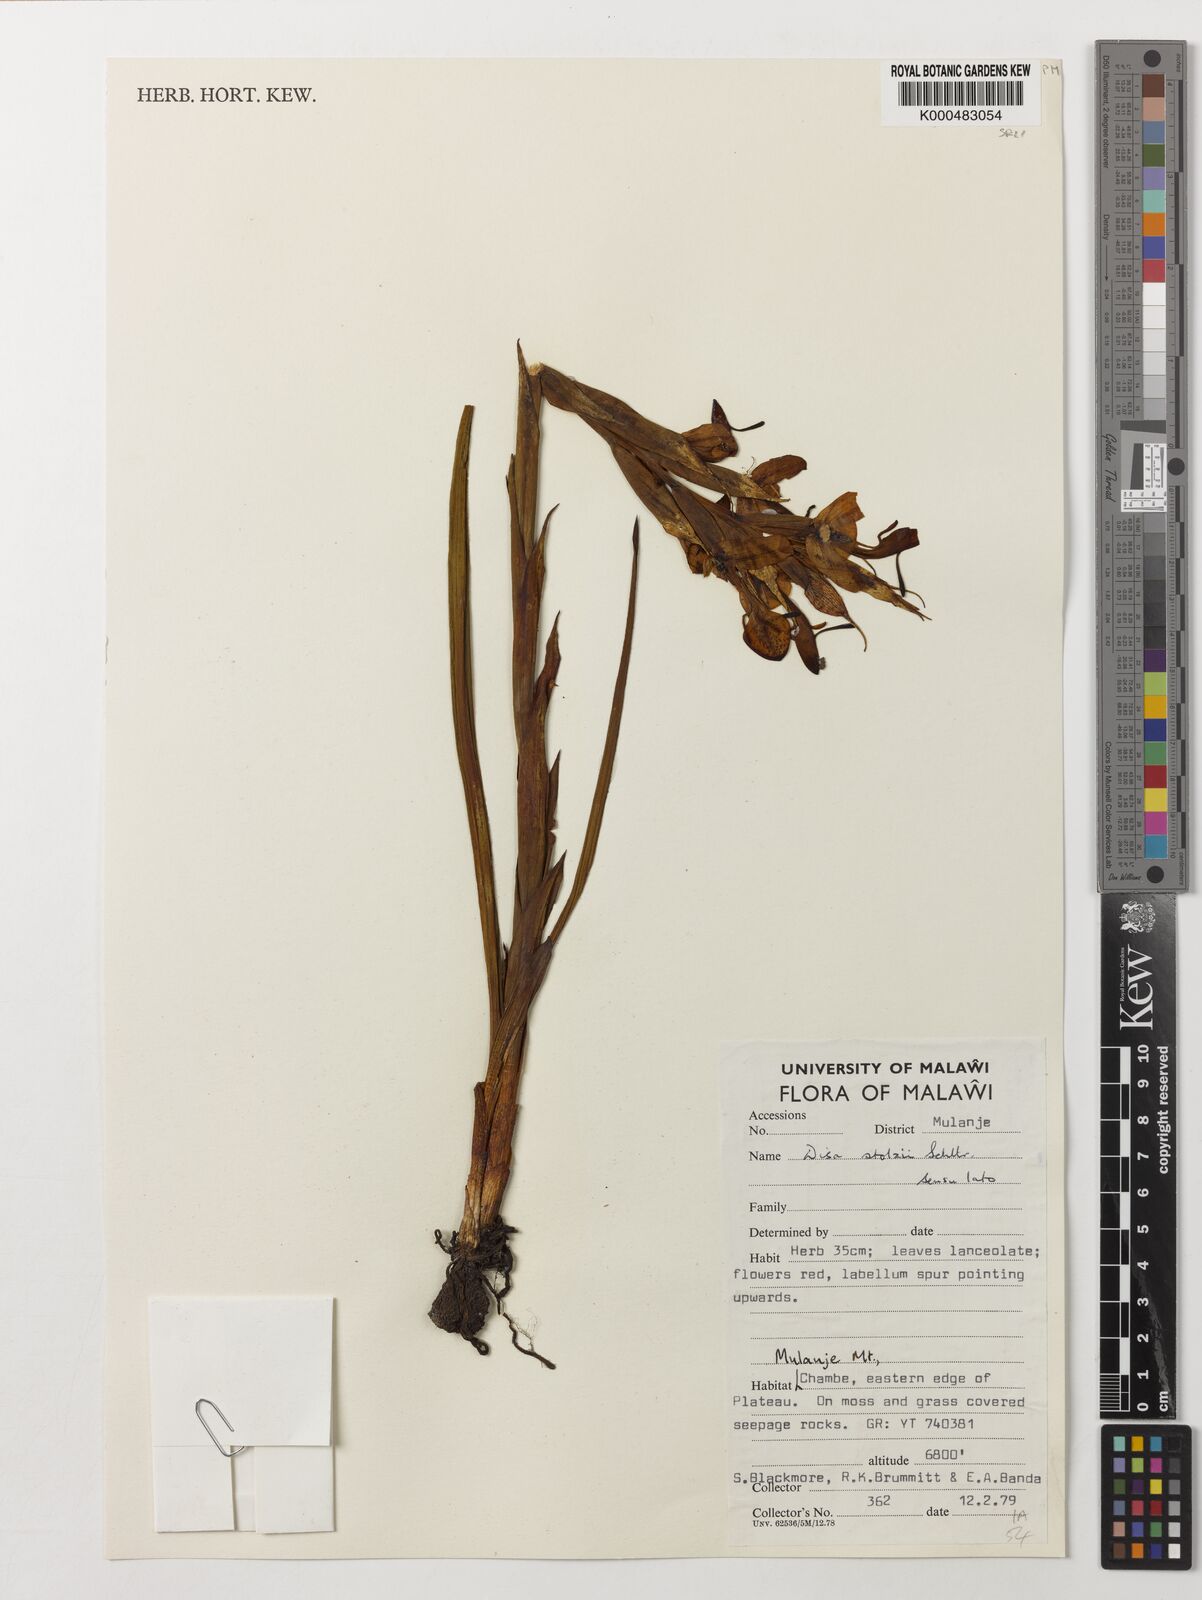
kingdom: Plantae
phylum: Tracheophyta
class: Liliopsida
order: Asparagales
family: Orchidaceae
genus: Disa
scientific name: Disa erubescens
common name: The rose disa
